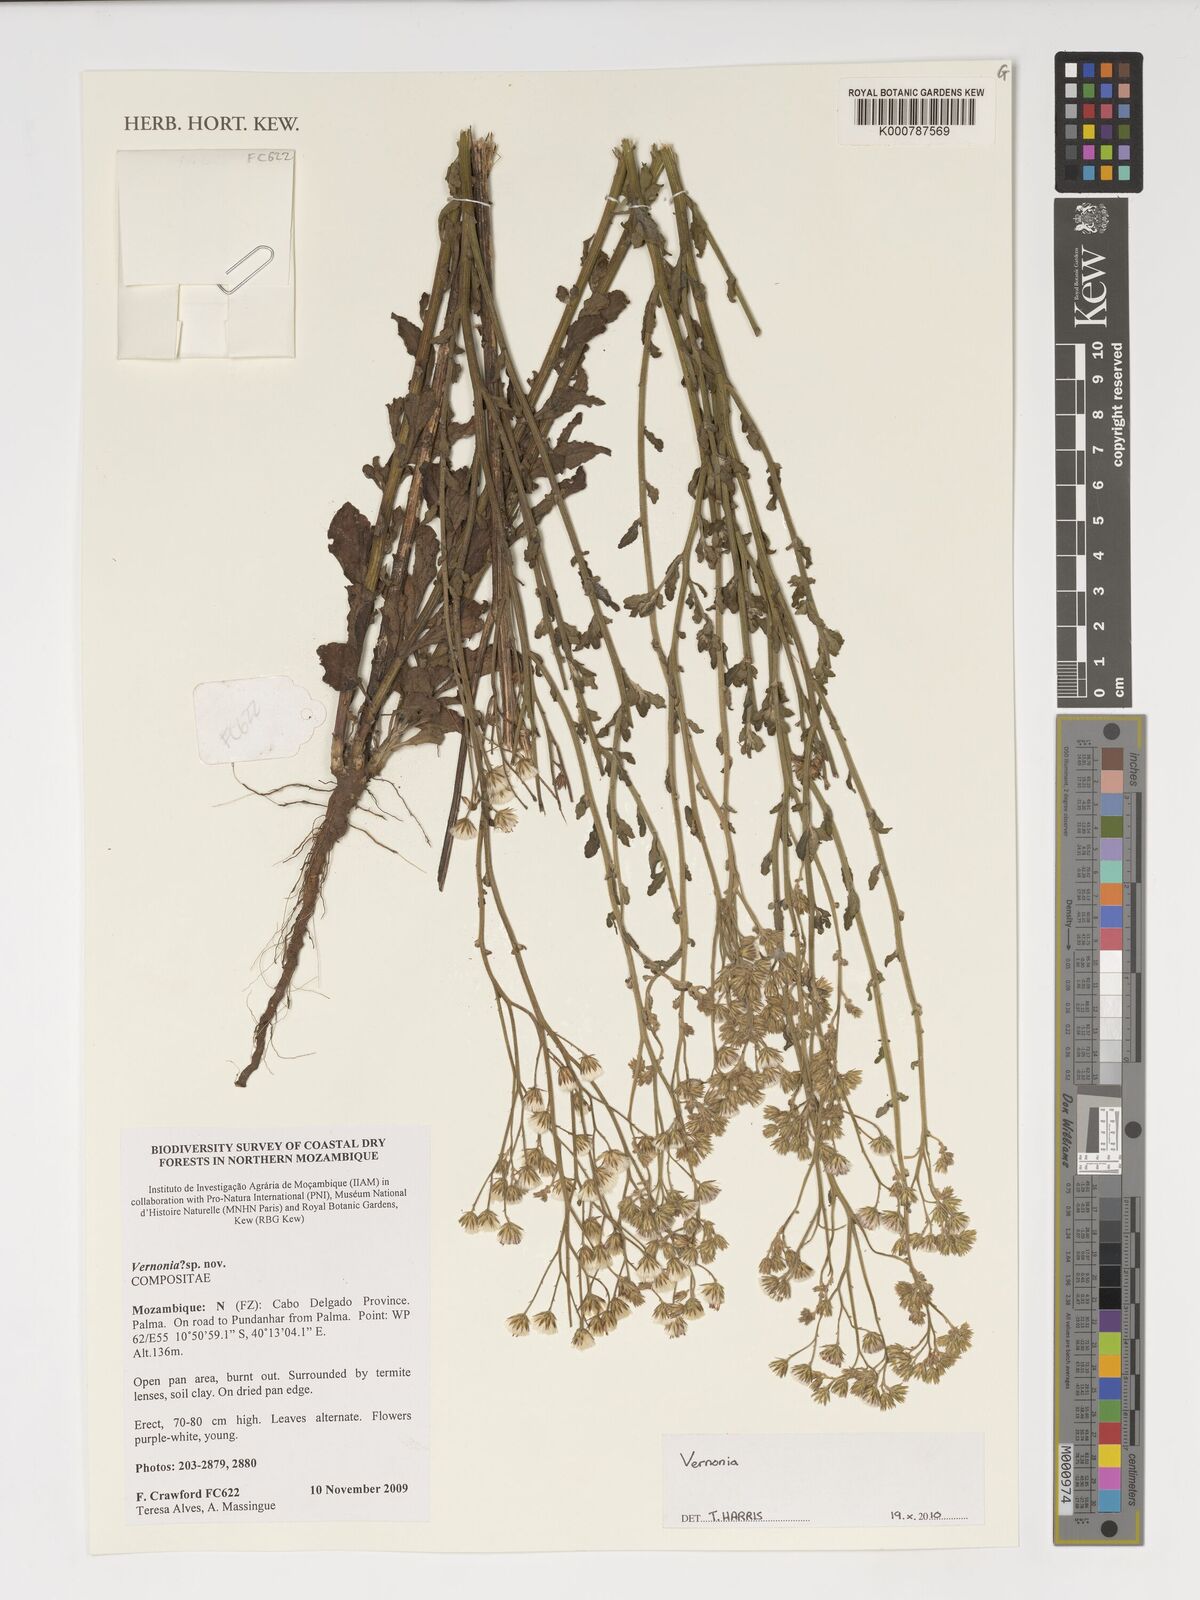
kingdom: Plantae
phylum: Tracheophyta
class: Magnoliopsida
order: Asterales
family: Asteraceae
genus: Vernonia
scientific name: Vernonia
